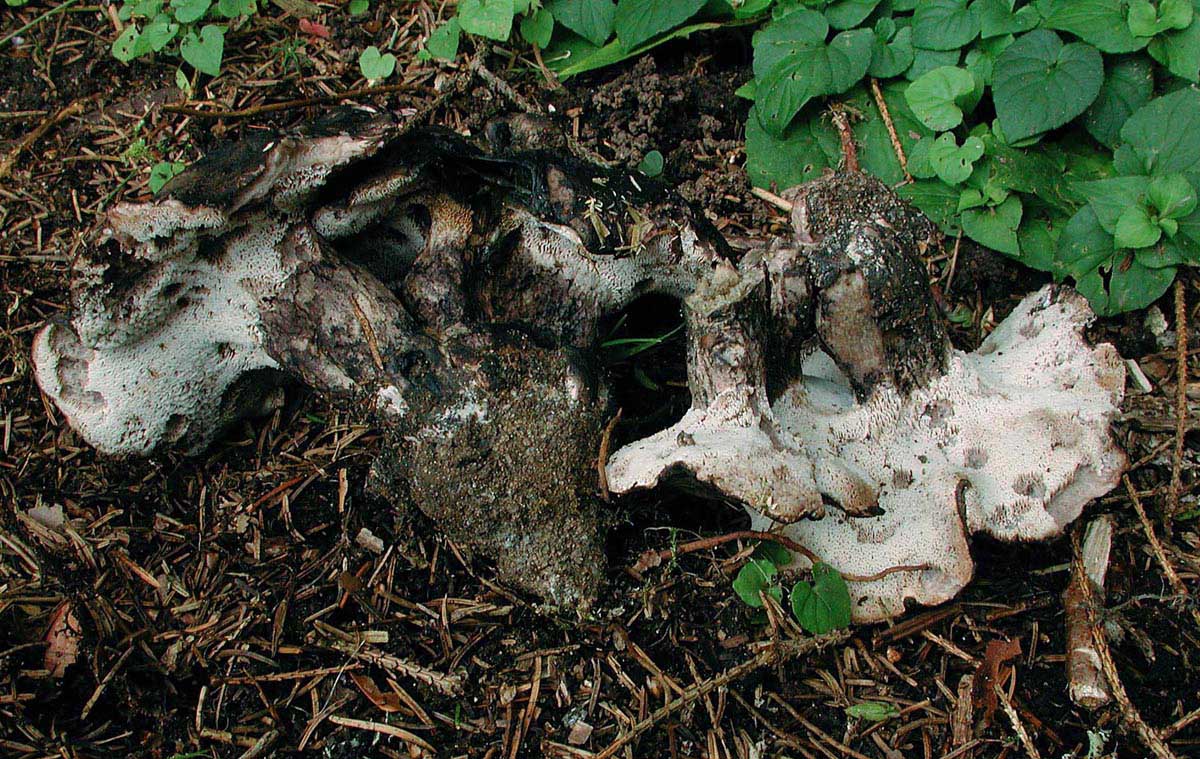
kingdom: Fungi
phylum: Basidiomycota
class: Agaricomycetes
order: Thelephorales
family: Bankeraceae
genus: Boletopsis
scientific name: Boletopsis leucomelaena
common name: sorthvid troldporesvamp
